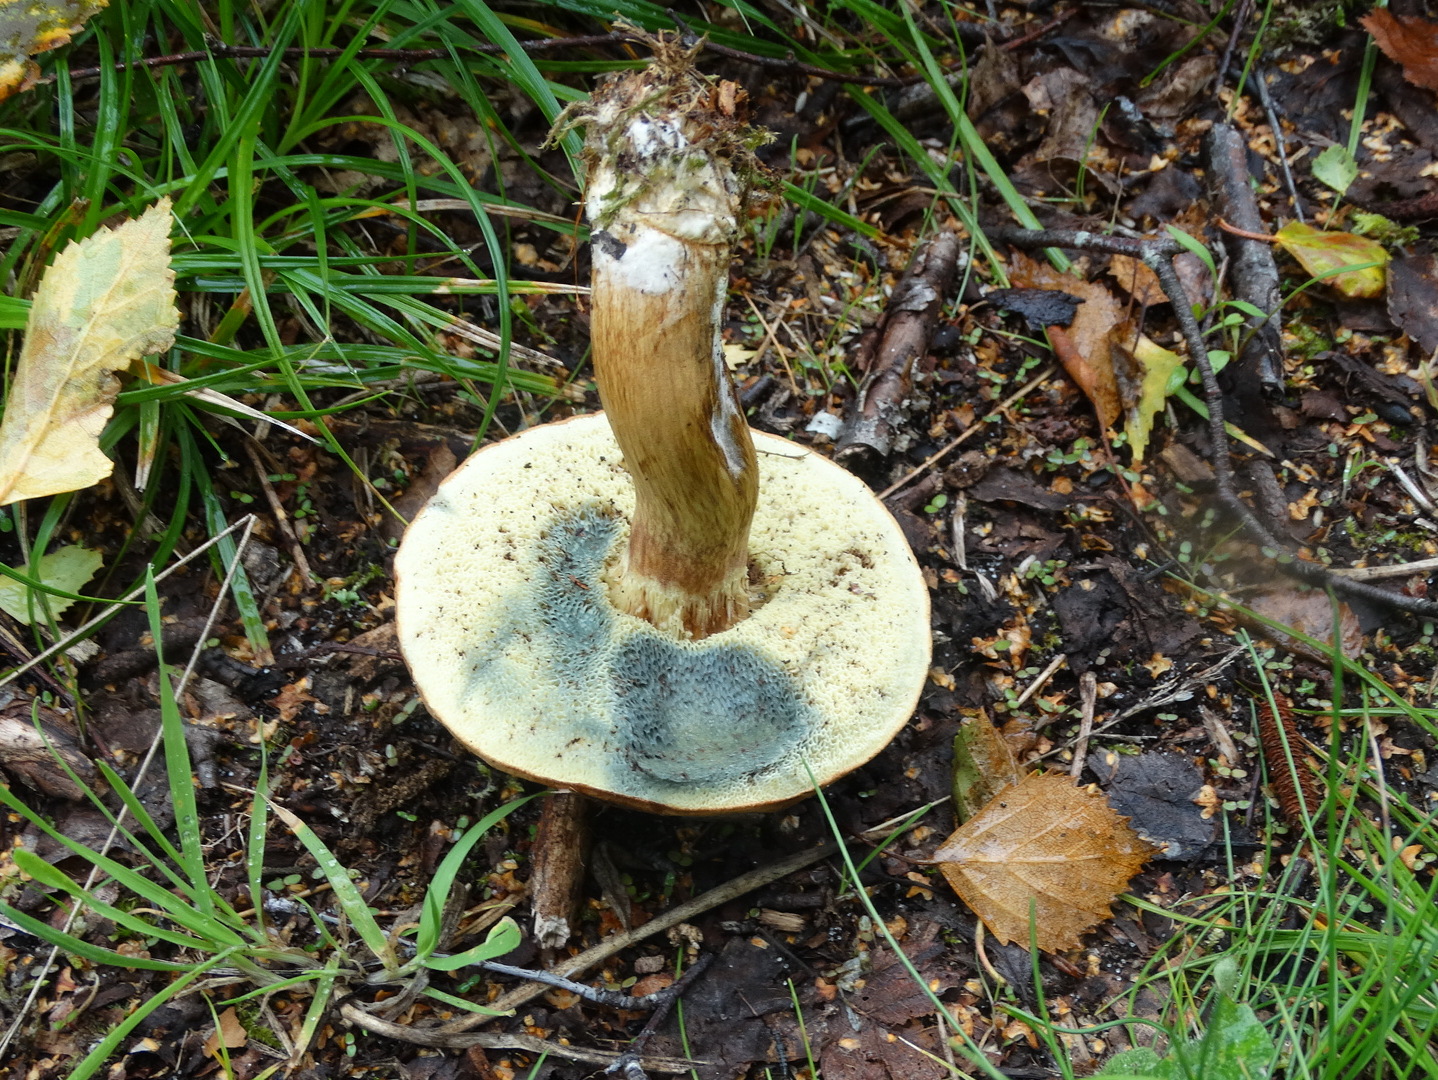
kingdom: Fungi
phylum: Basidiomycota
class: Agaricomycetes
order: Boletales
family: Boletaceae
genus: Imleria
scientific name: Imleria badia
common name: brunstokket rørhat
